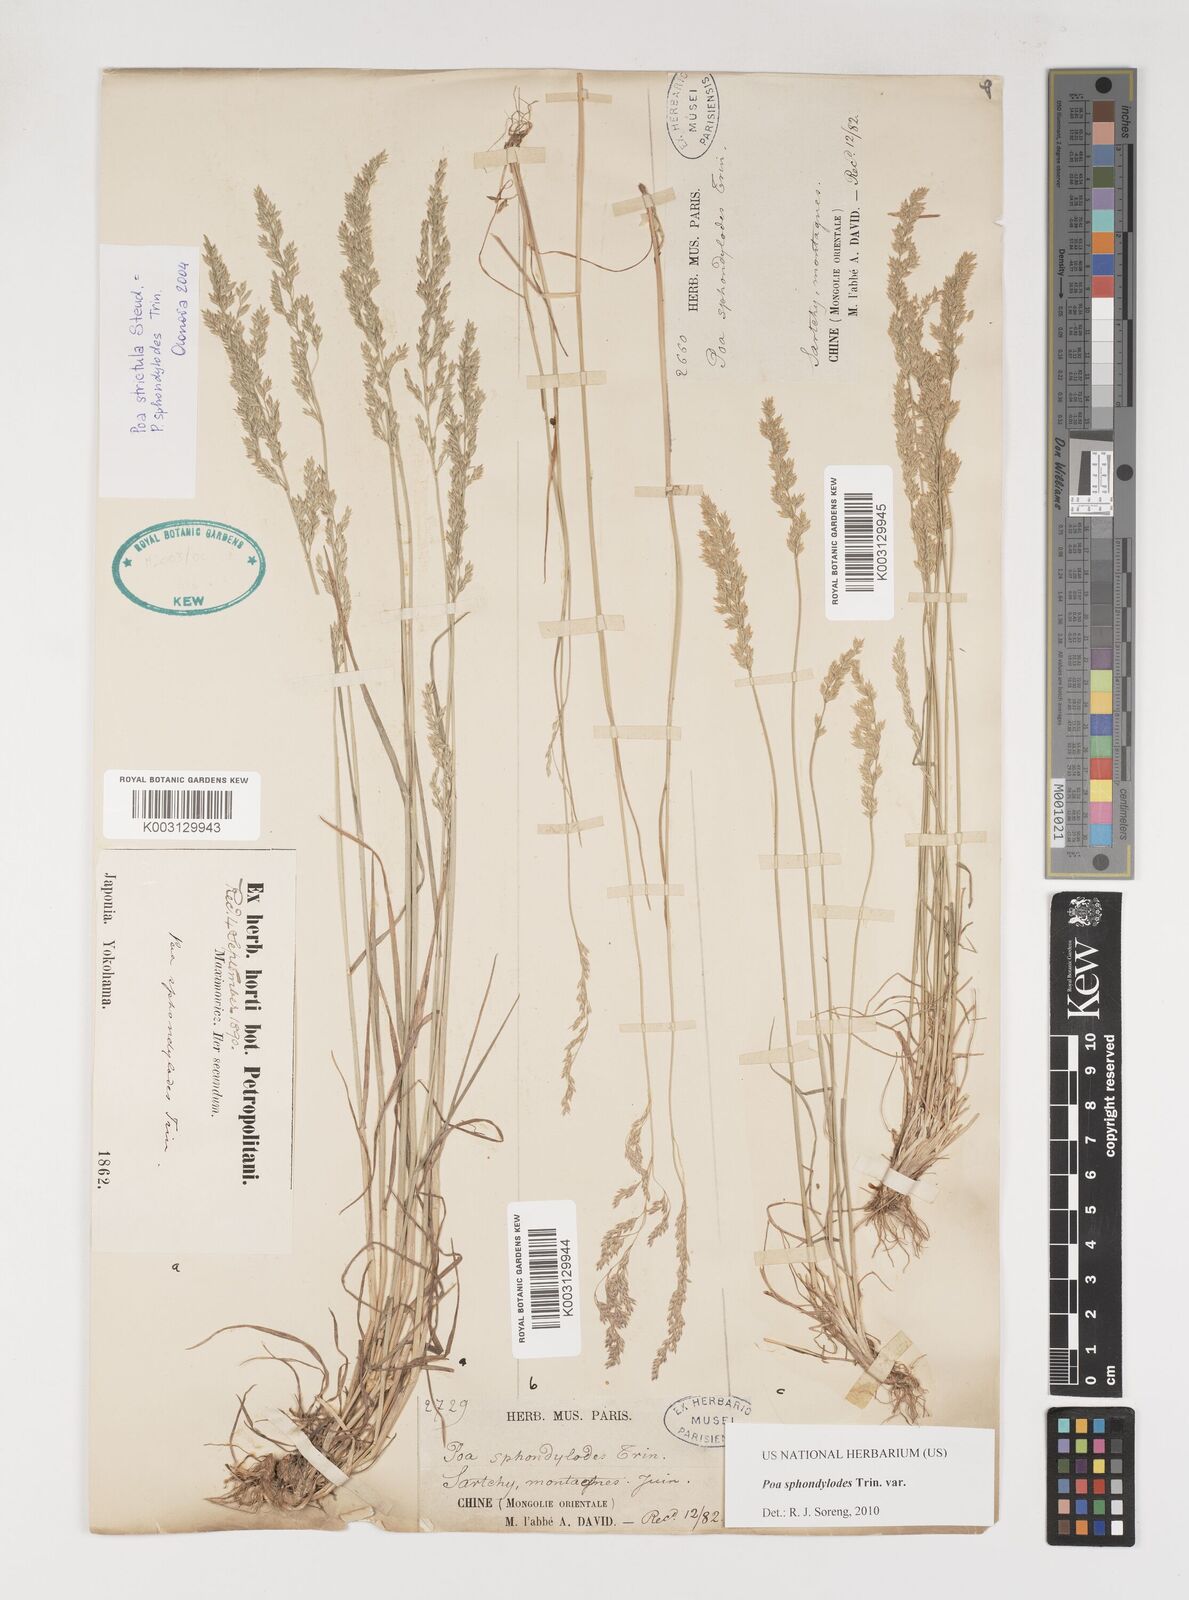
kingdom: Plantae
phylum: Tracheophyta
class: Liliopsida
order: Poales
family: Poaceae
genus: Poa
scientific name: Poa sphondylodes
